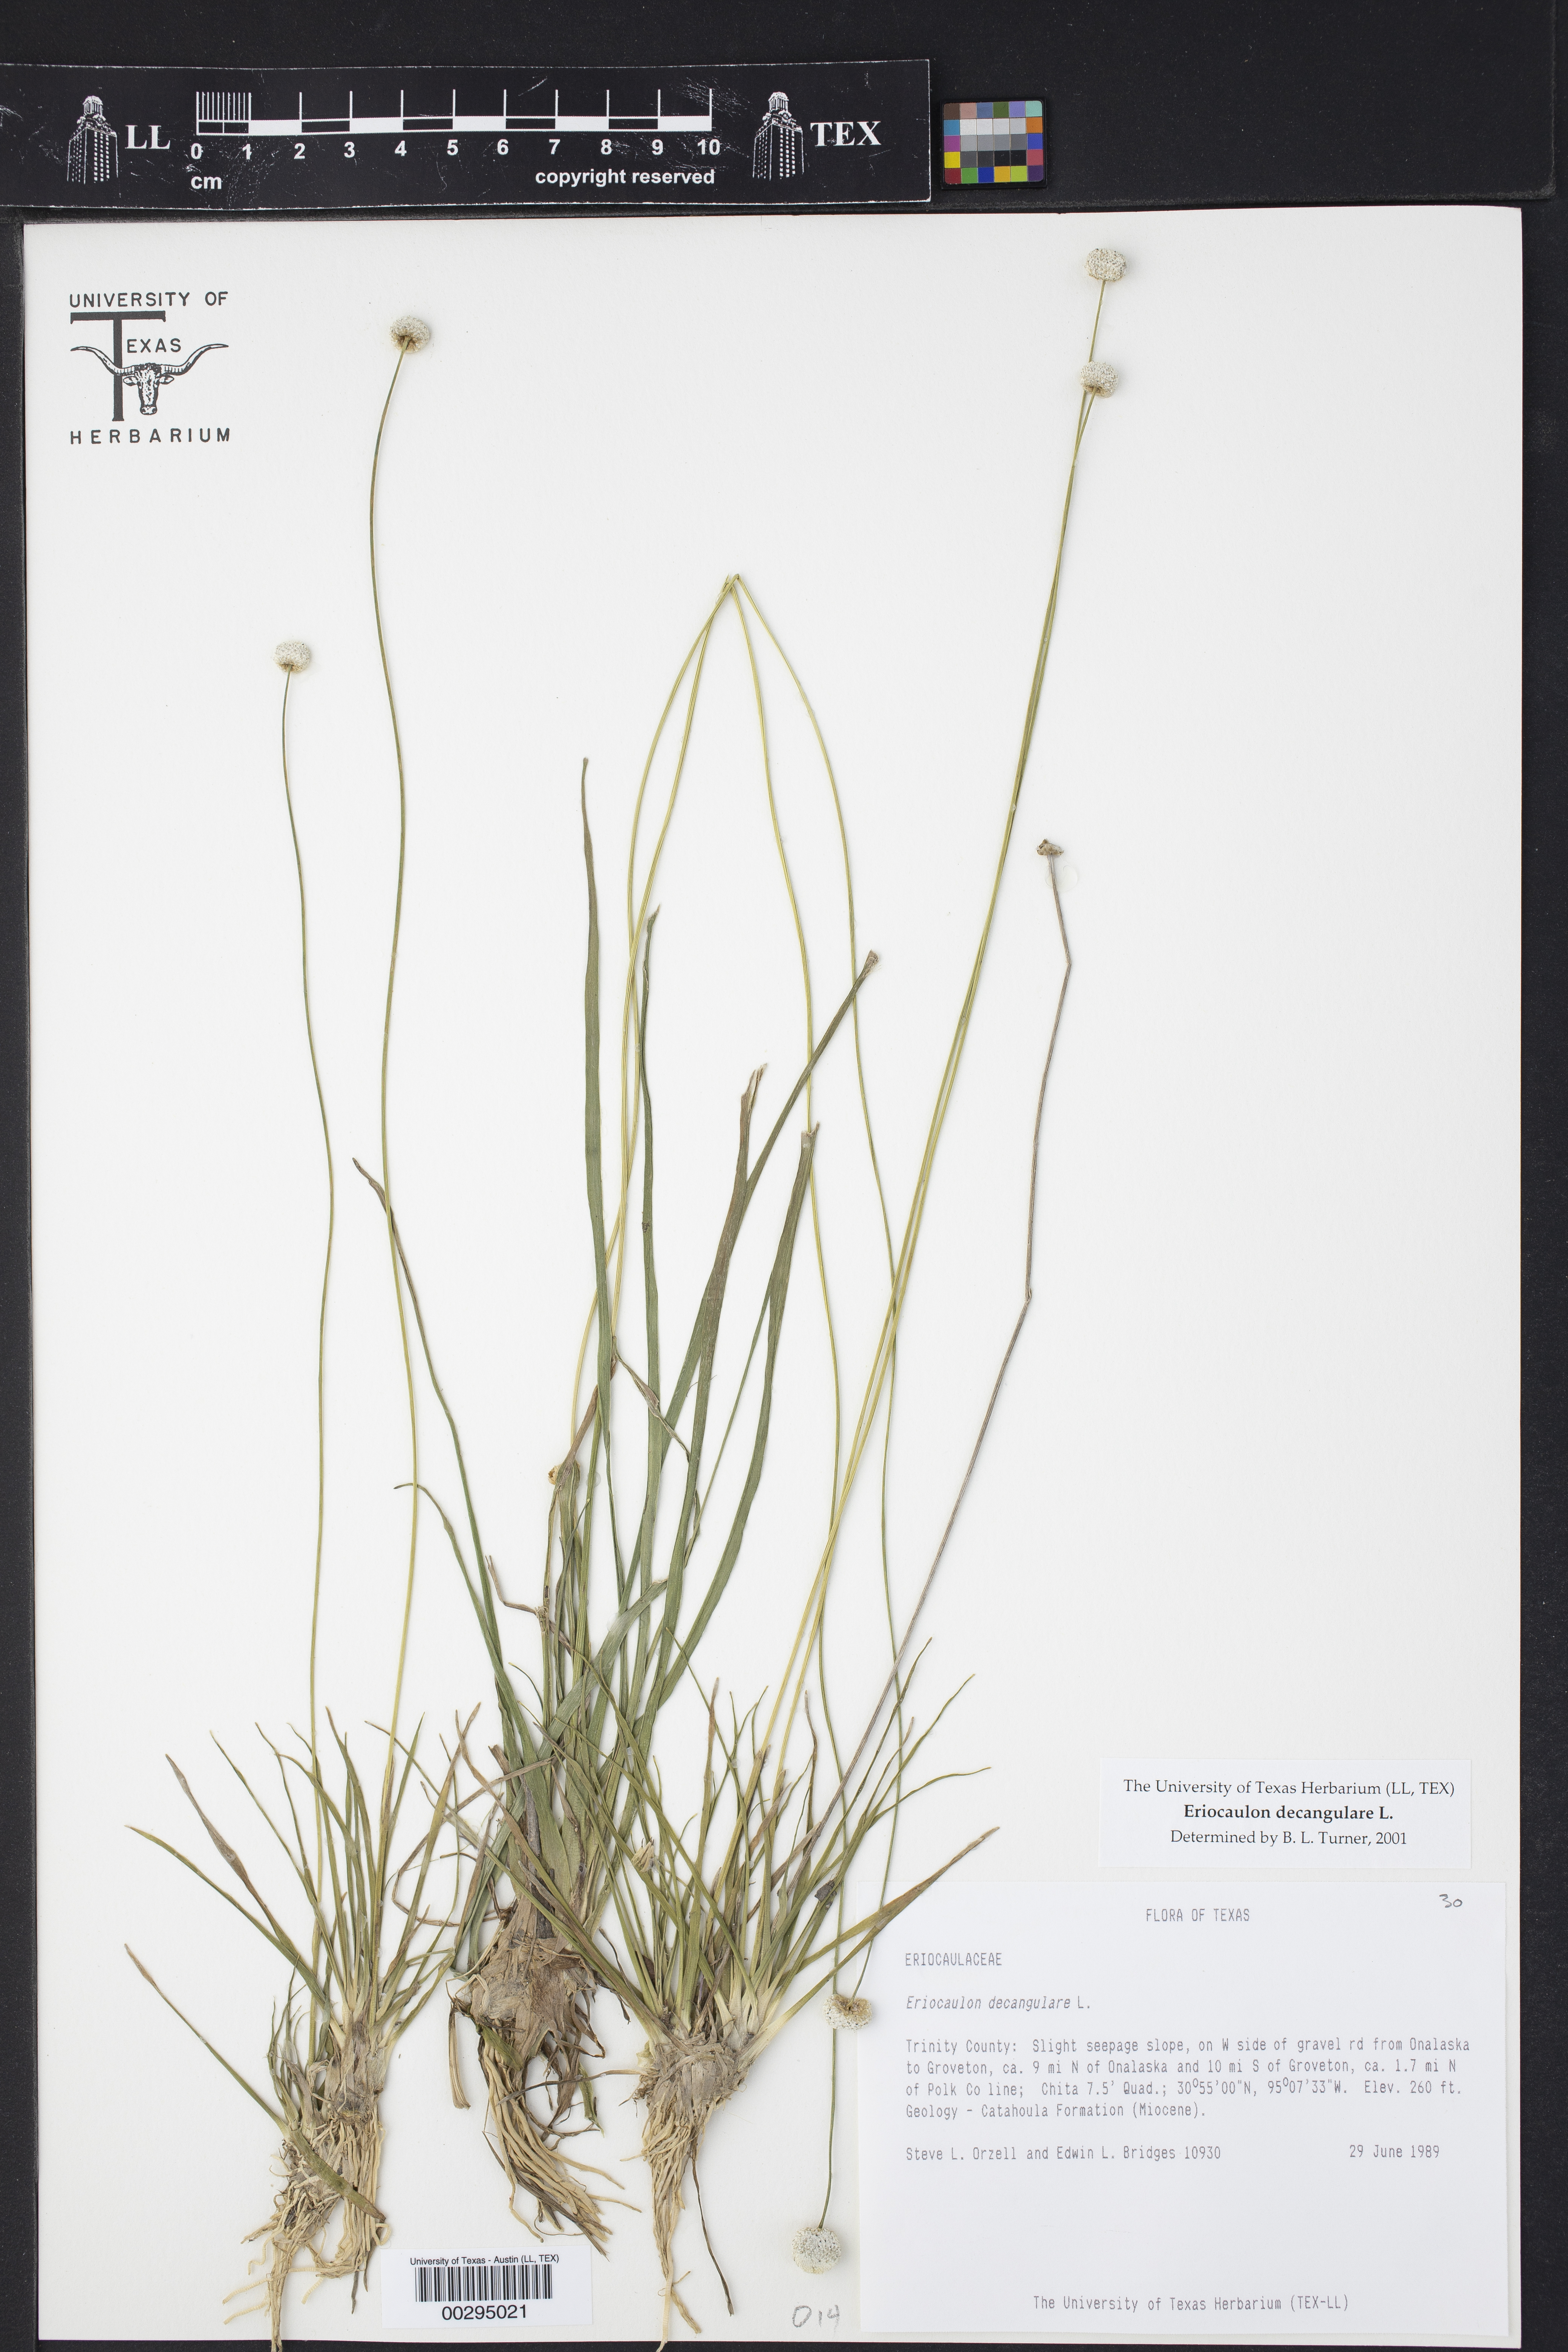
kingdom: Plantae
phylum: Tracheophyta
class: Liliopsida
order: Poales
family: Eriocaulaceae
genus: Eriocaulon
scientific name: Eriocaulon decangulare
